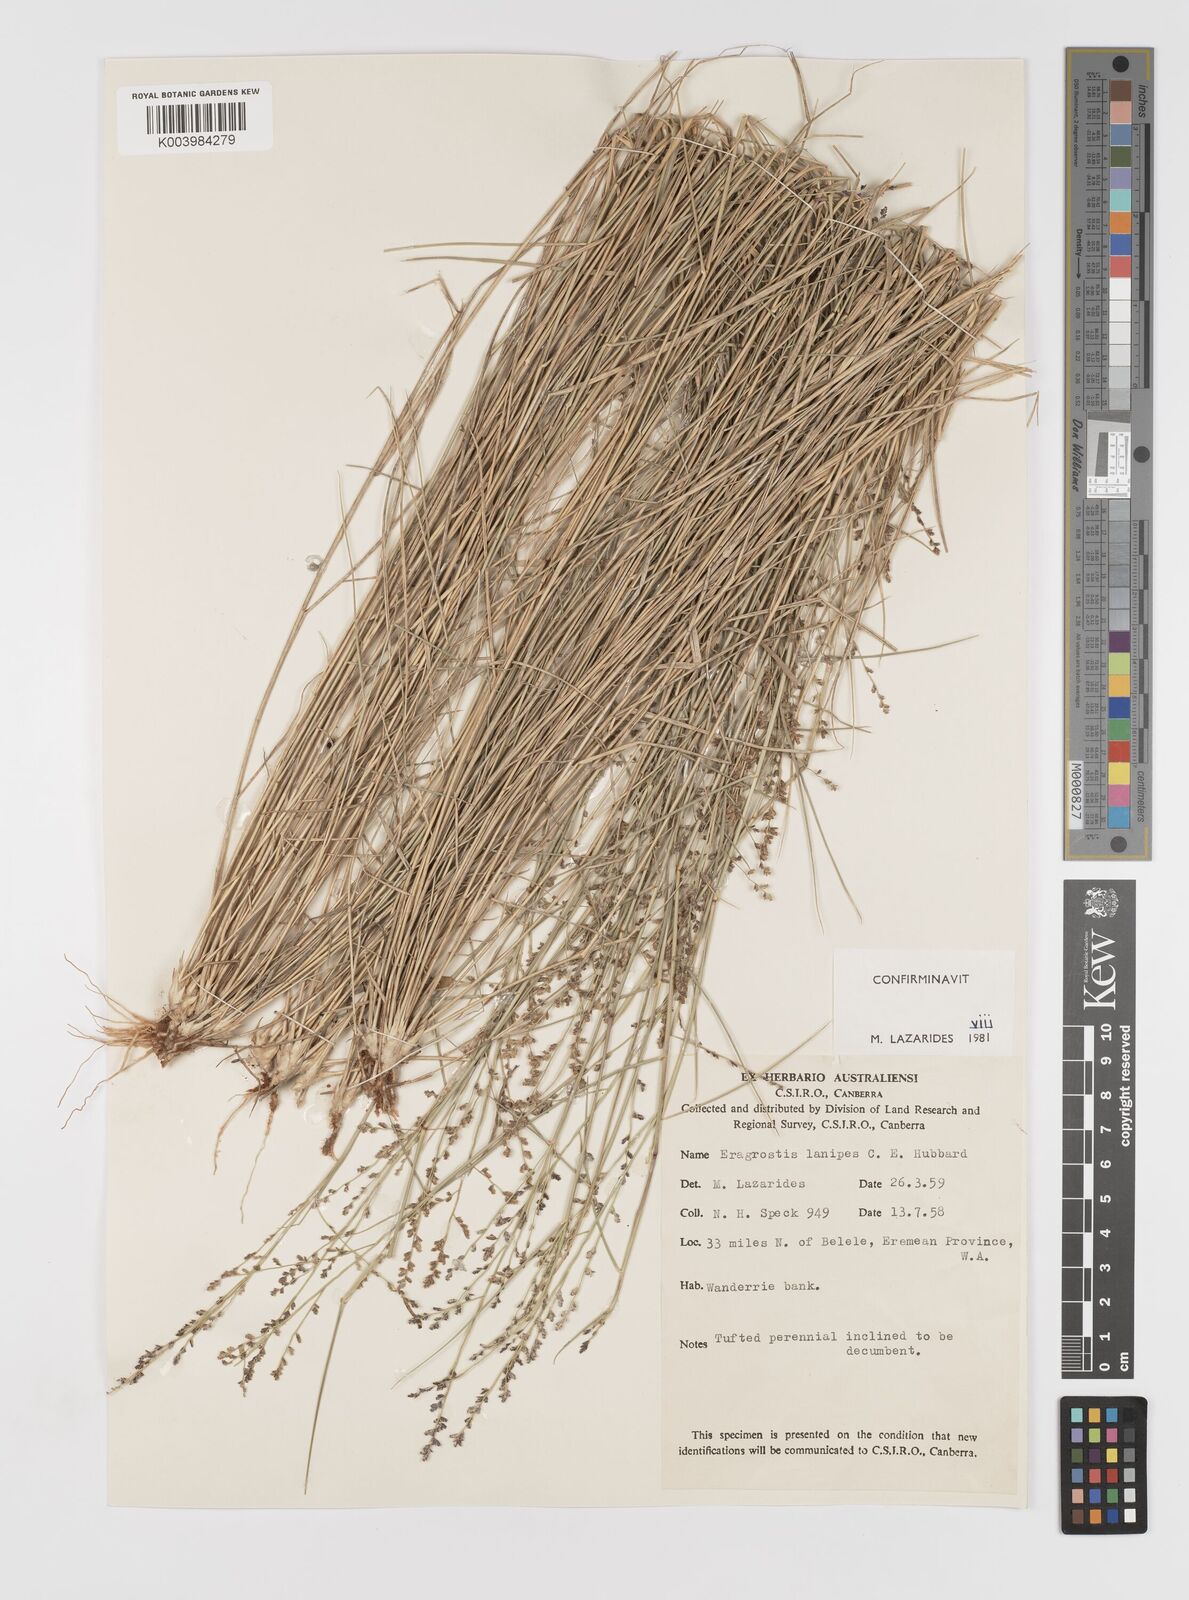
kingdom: Plantae
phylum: Tracheophyta
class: Liliopsida
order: Poales
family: Poaceae
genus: Eragrostis
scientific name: Eragrostis lanipes
